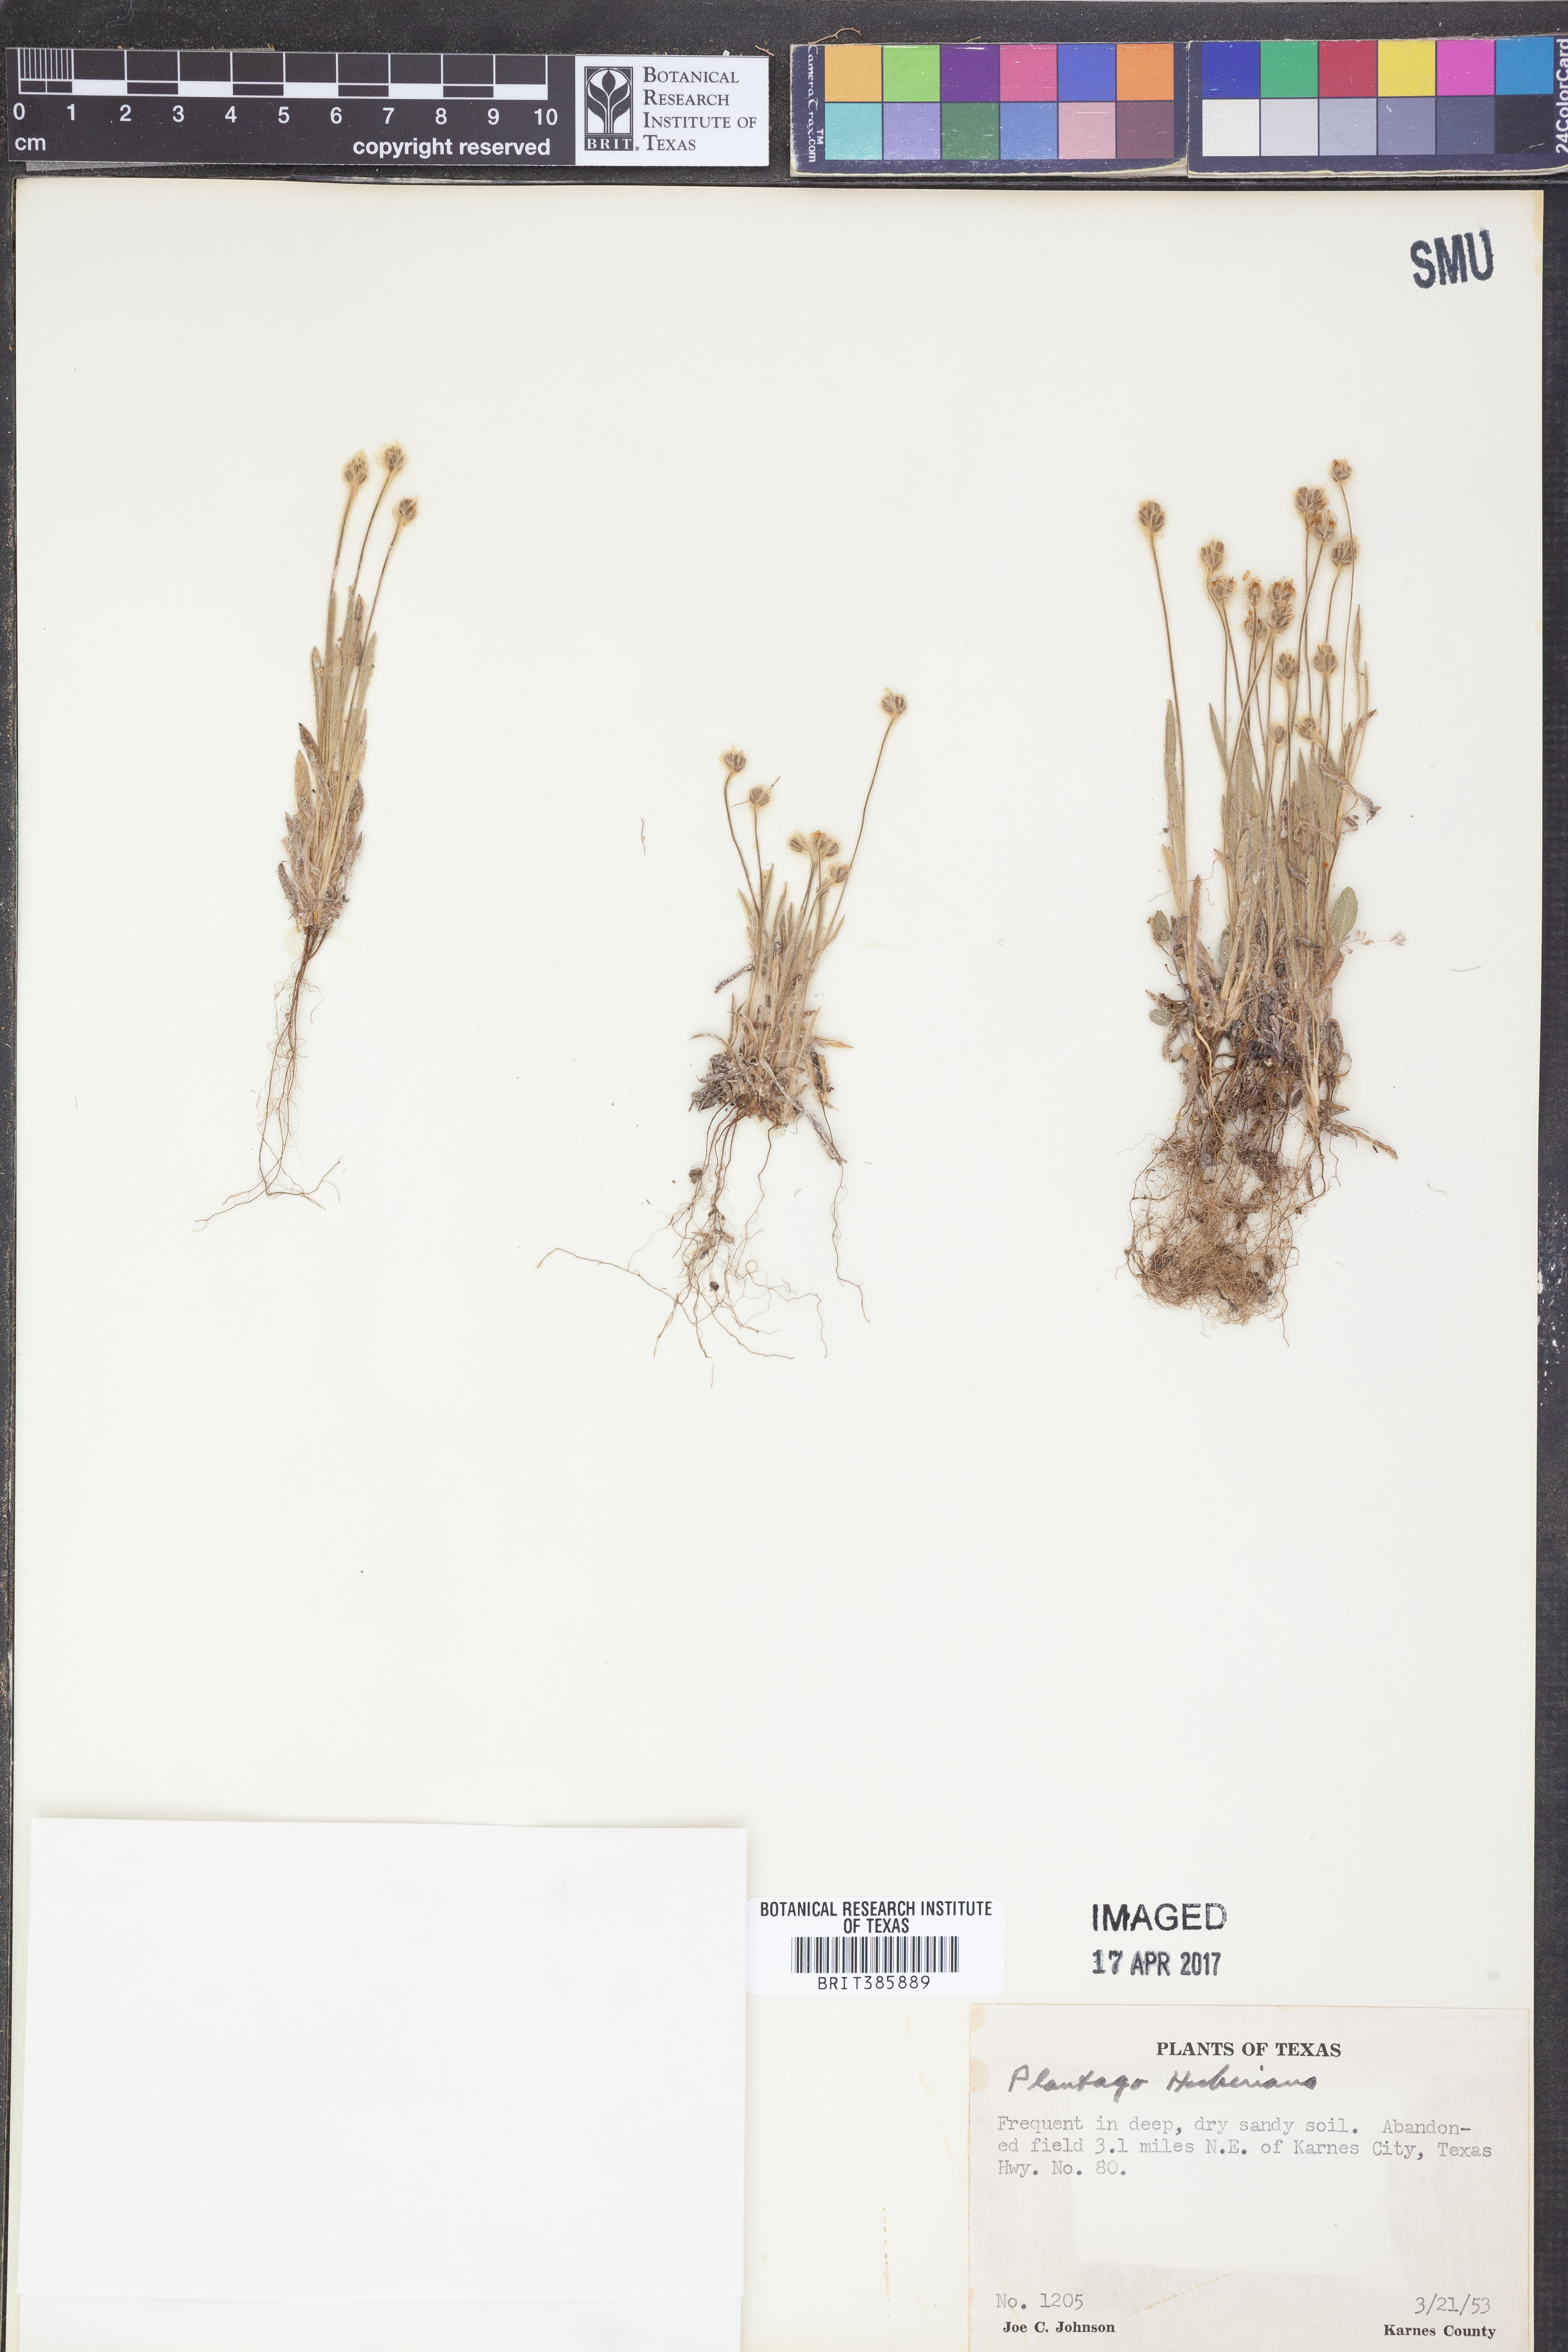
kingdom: Plantae
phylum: Tracheophyta
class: Magnoliopsida
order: Lamiales
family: Plantaginaceae
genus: Plantago
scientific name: Plantago
